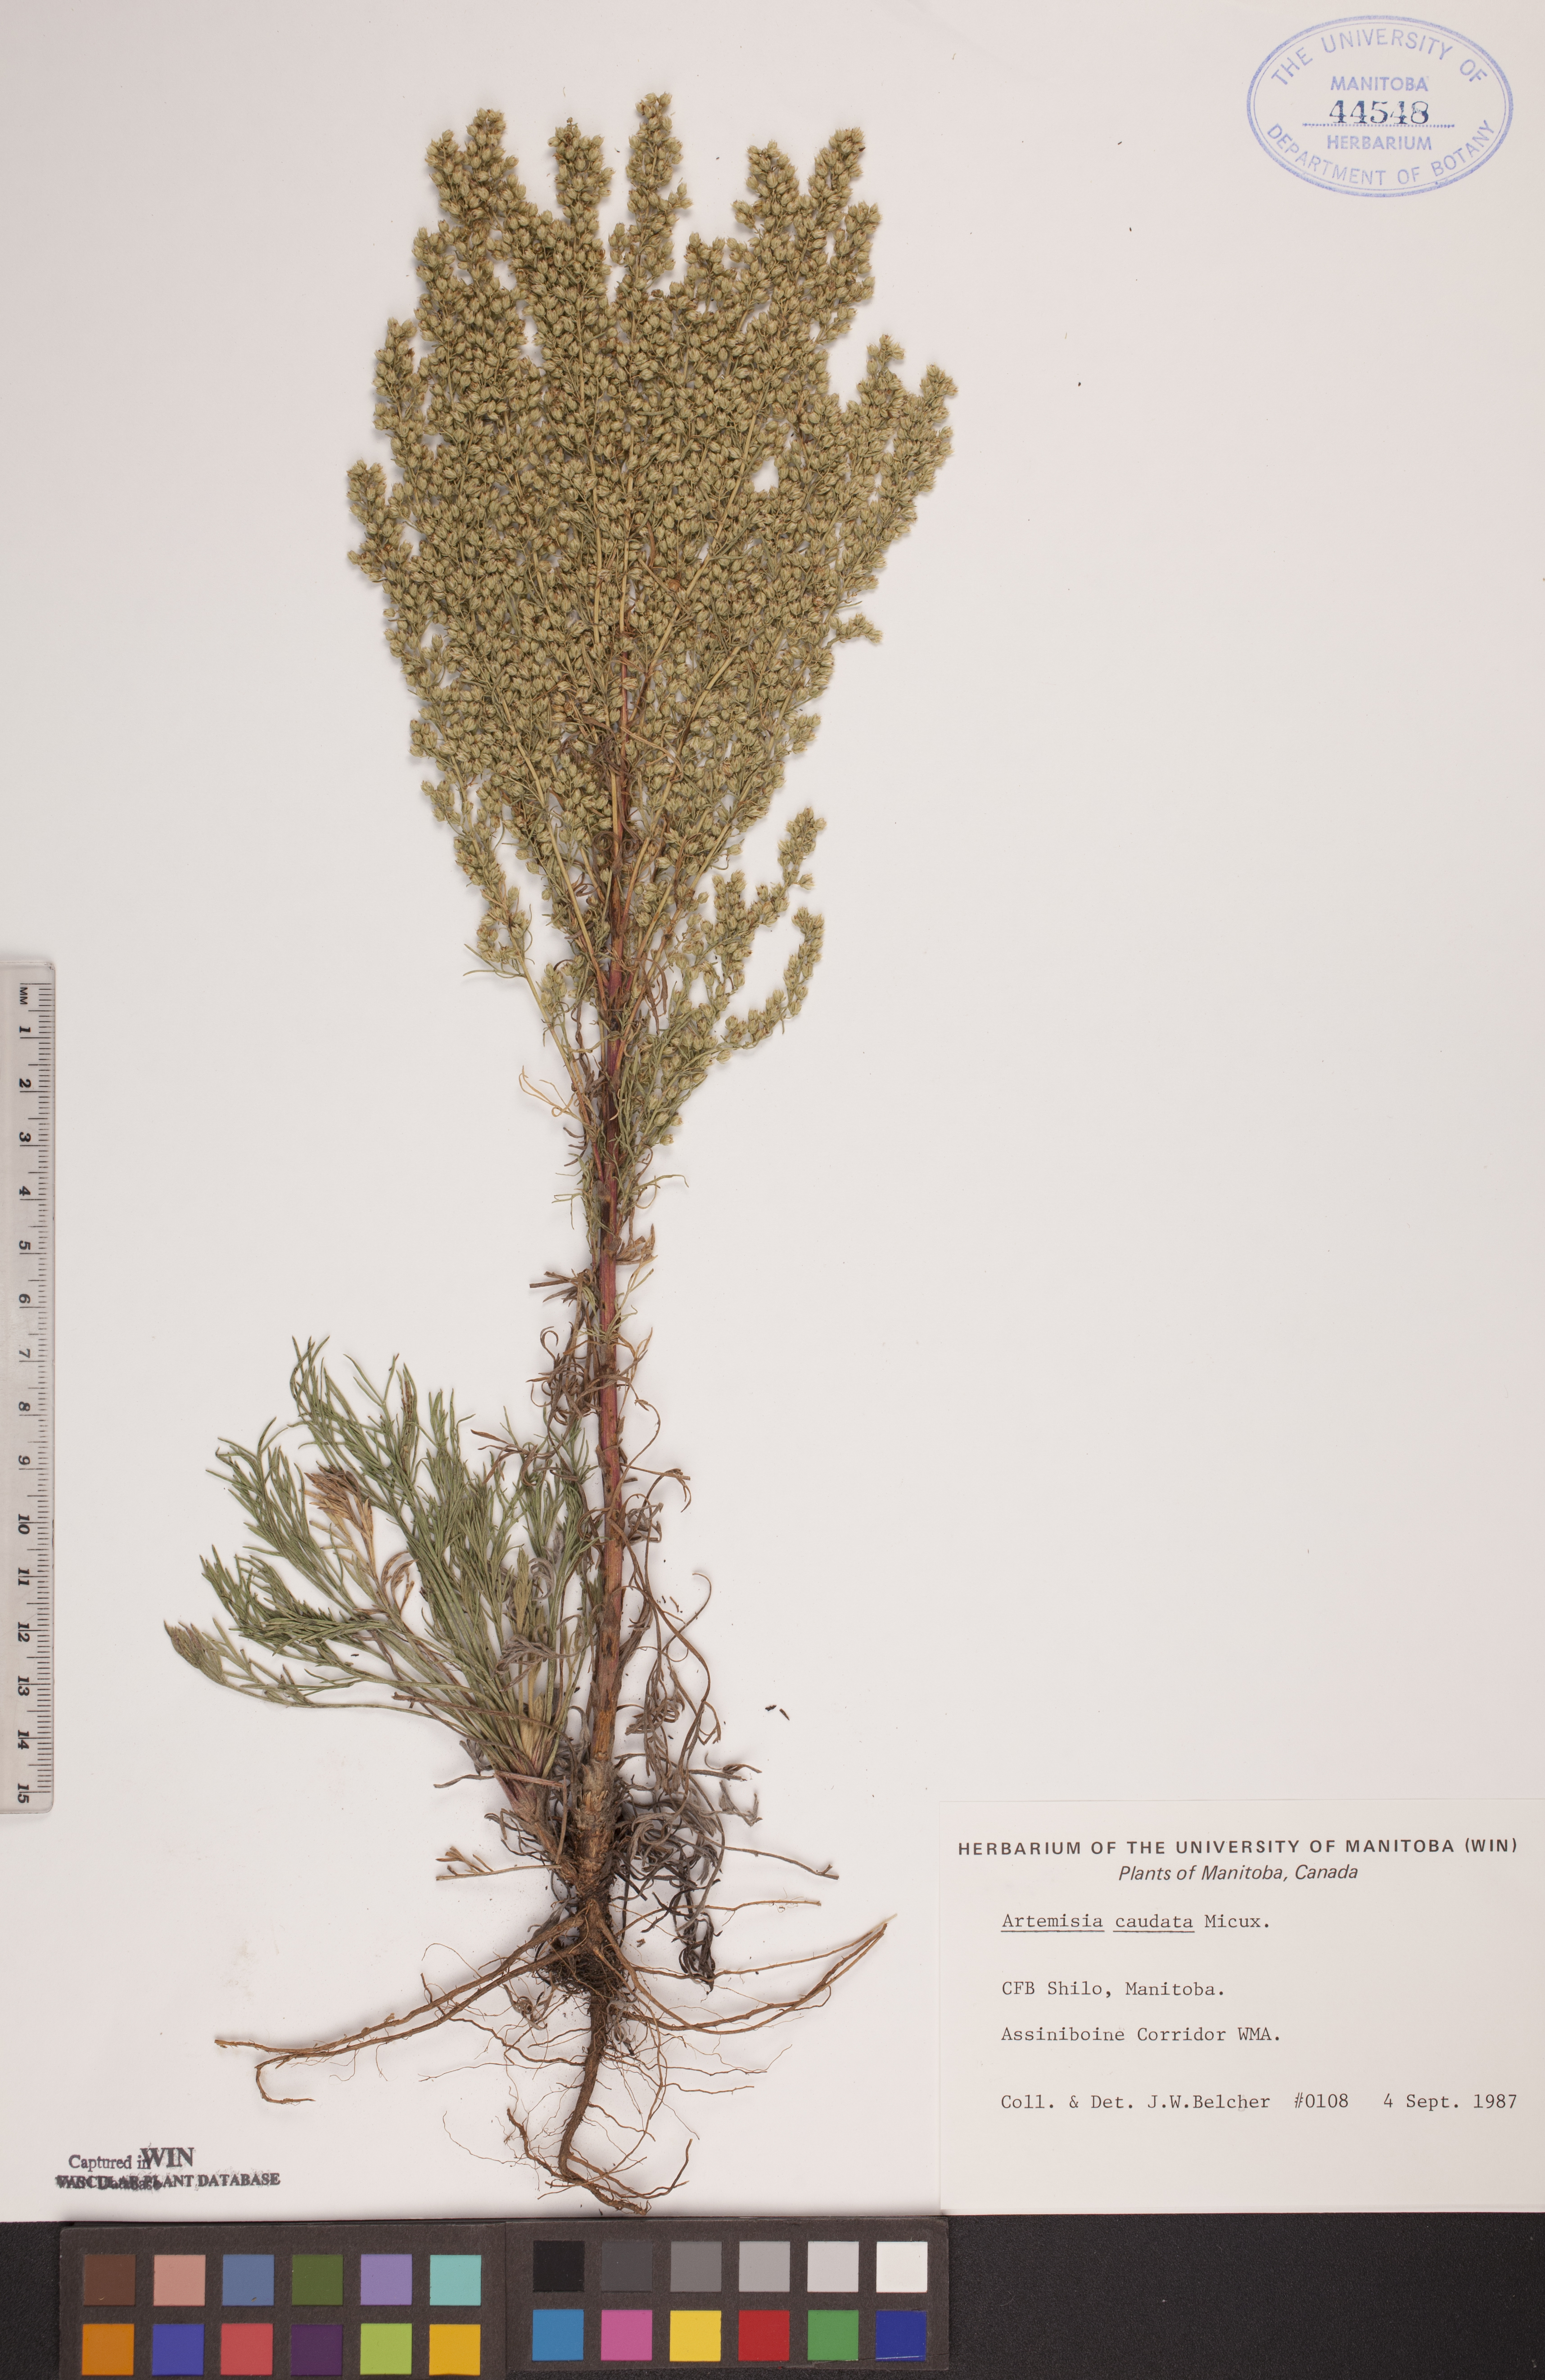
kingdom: Plantae
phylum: Tracheophyta
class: Magnoliopsida
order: Asterales
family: Asteraceae
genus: Artemisia
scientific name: Artemisia campestris
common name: Field wormwood
